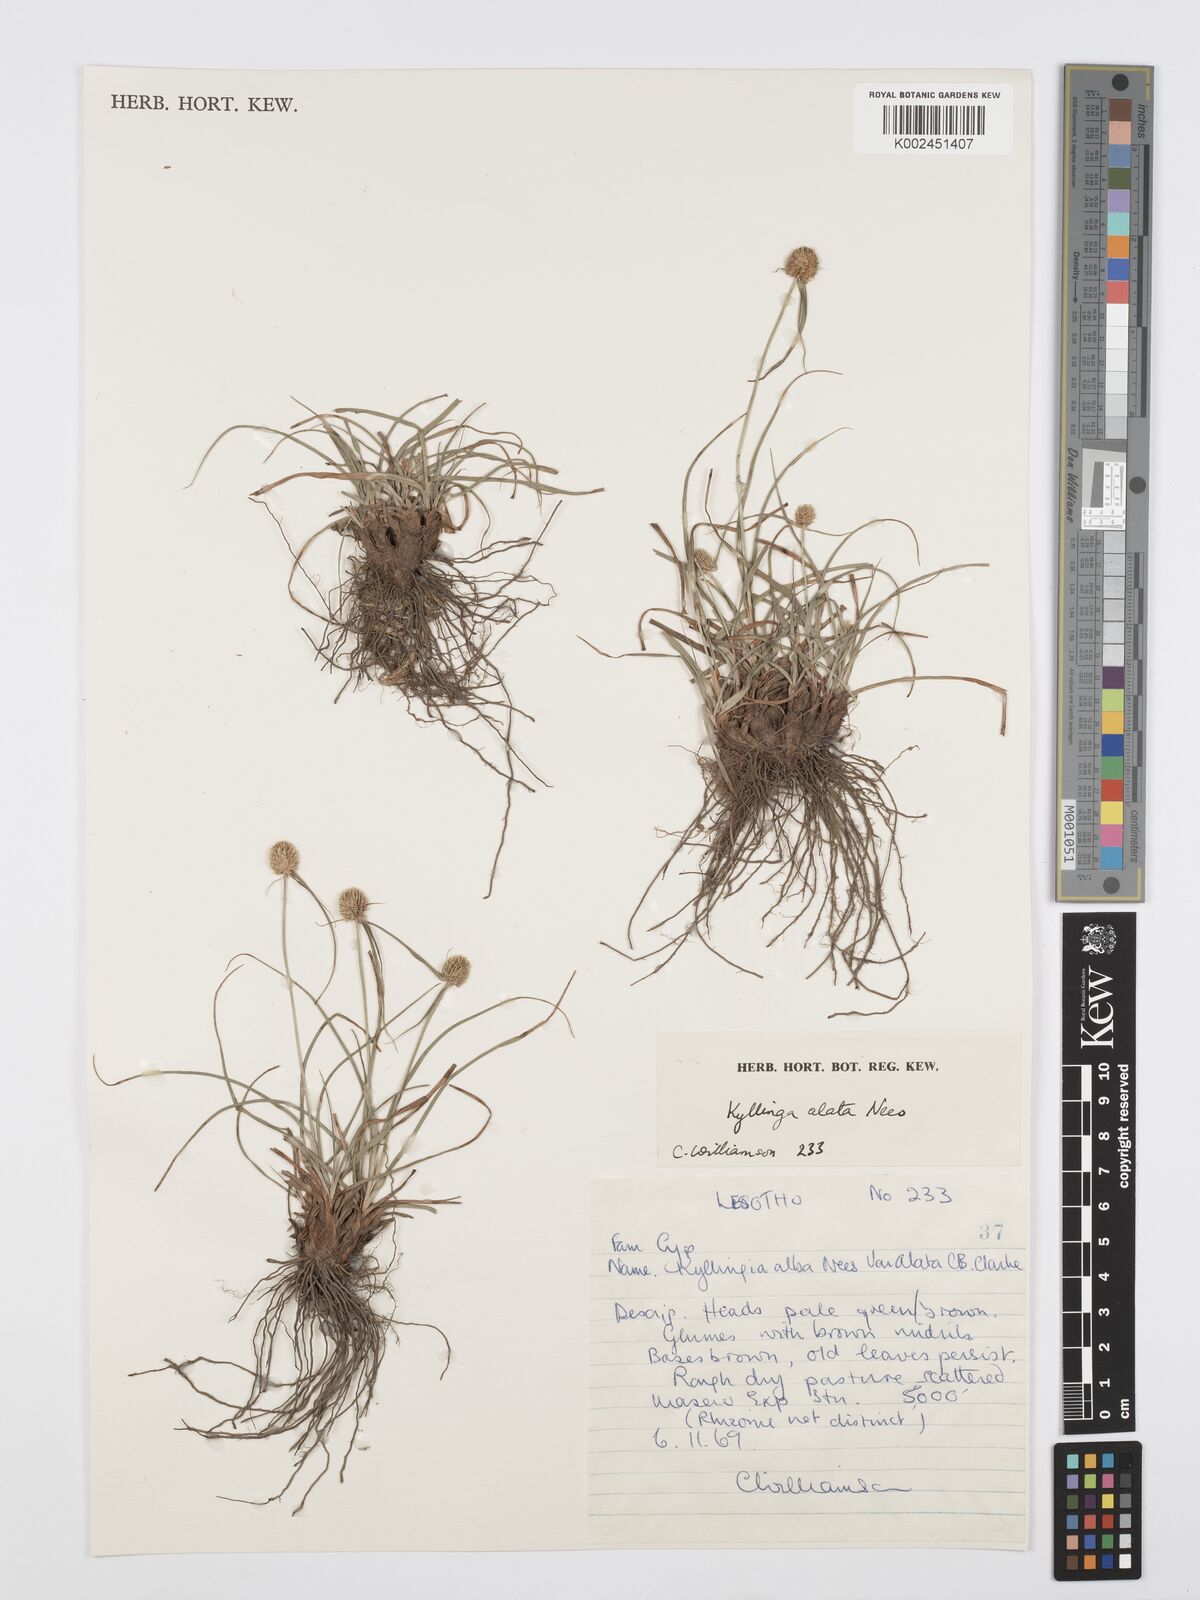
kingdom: Plantae
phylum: Tracheophyta
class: Liliopsida
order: Poales
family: Cyperaceae
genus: Cyperus
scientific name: Cyperus alatus
